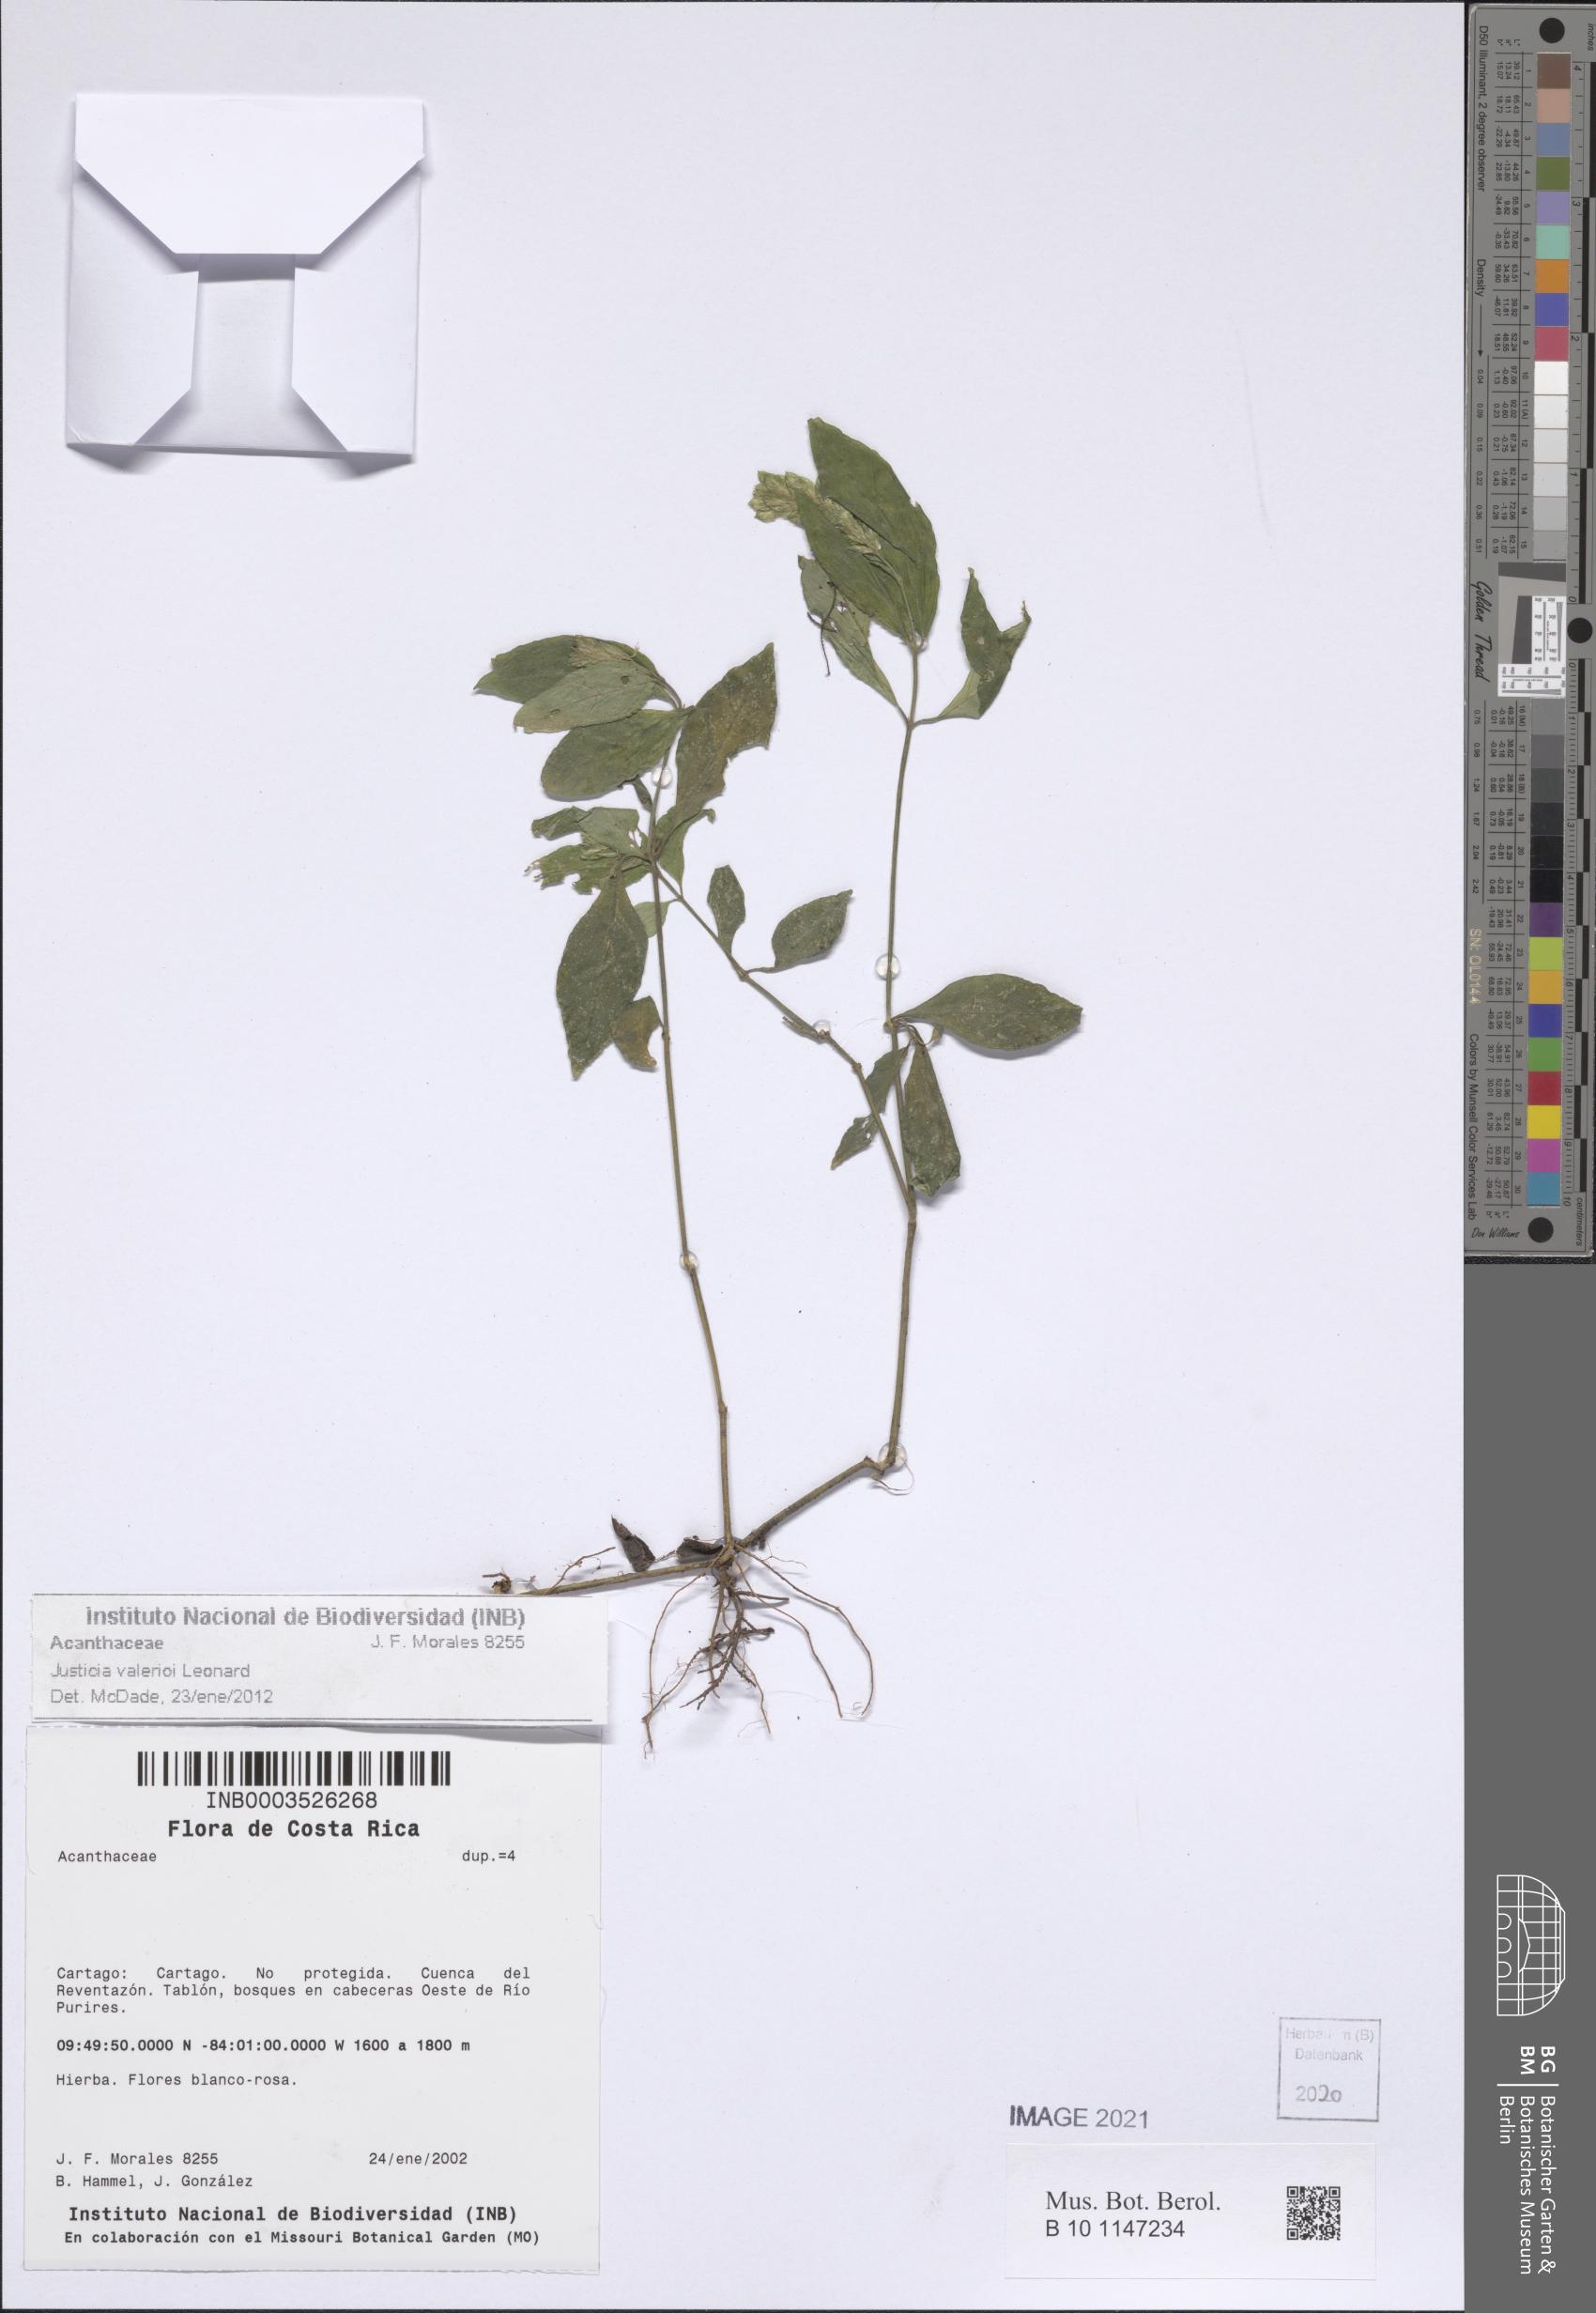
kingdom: Plantae
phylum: Tracheophyta
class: Magnoliopsida
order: Lamiales
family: Acanthaceae
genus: Justicia
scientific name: Justicia valerioi
